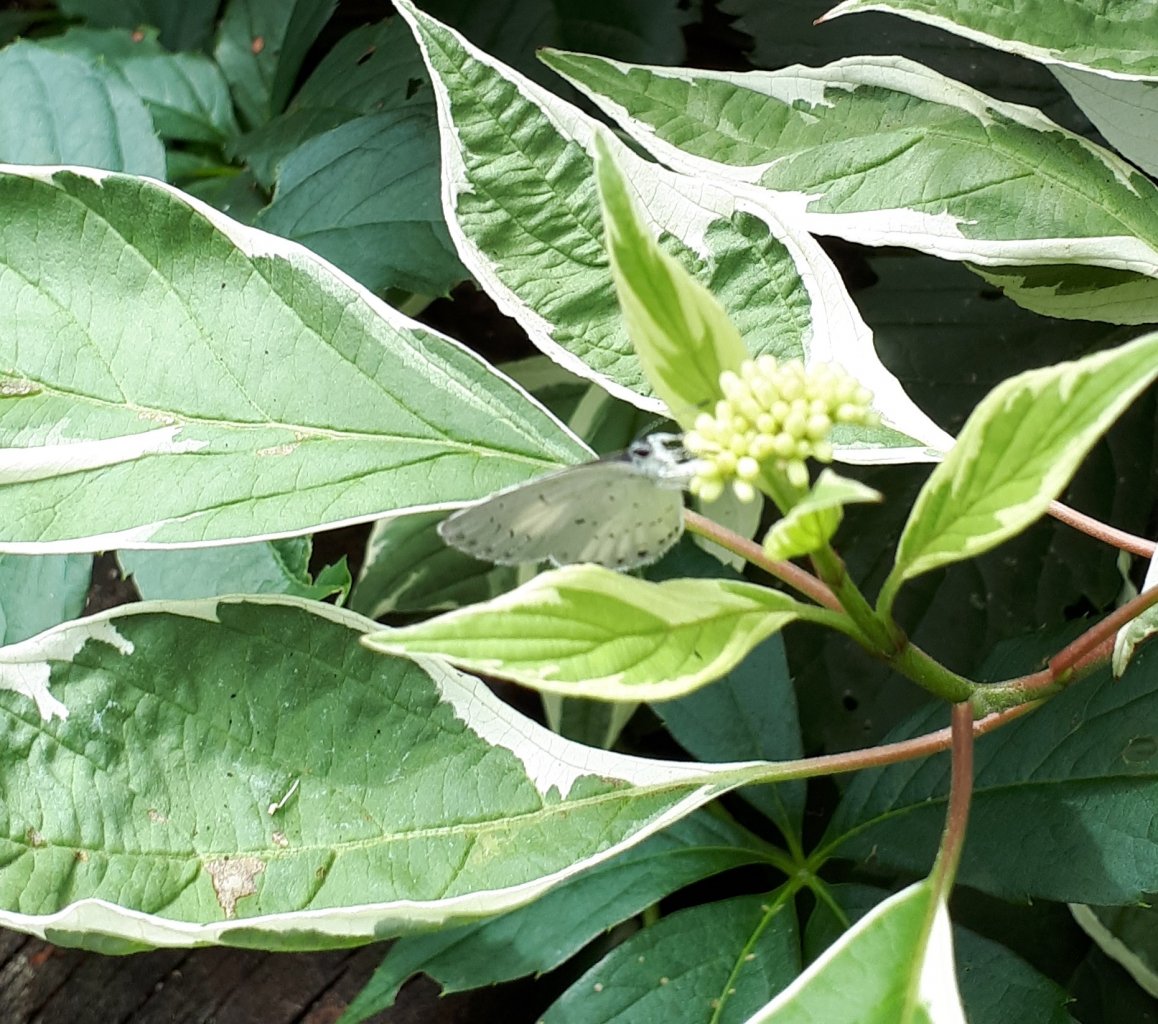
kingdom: Animalia
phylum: Arthropoda
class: Insecta
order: Lepidoptera
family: Lycaenidae
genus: Celastrina
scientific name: Celastrina
